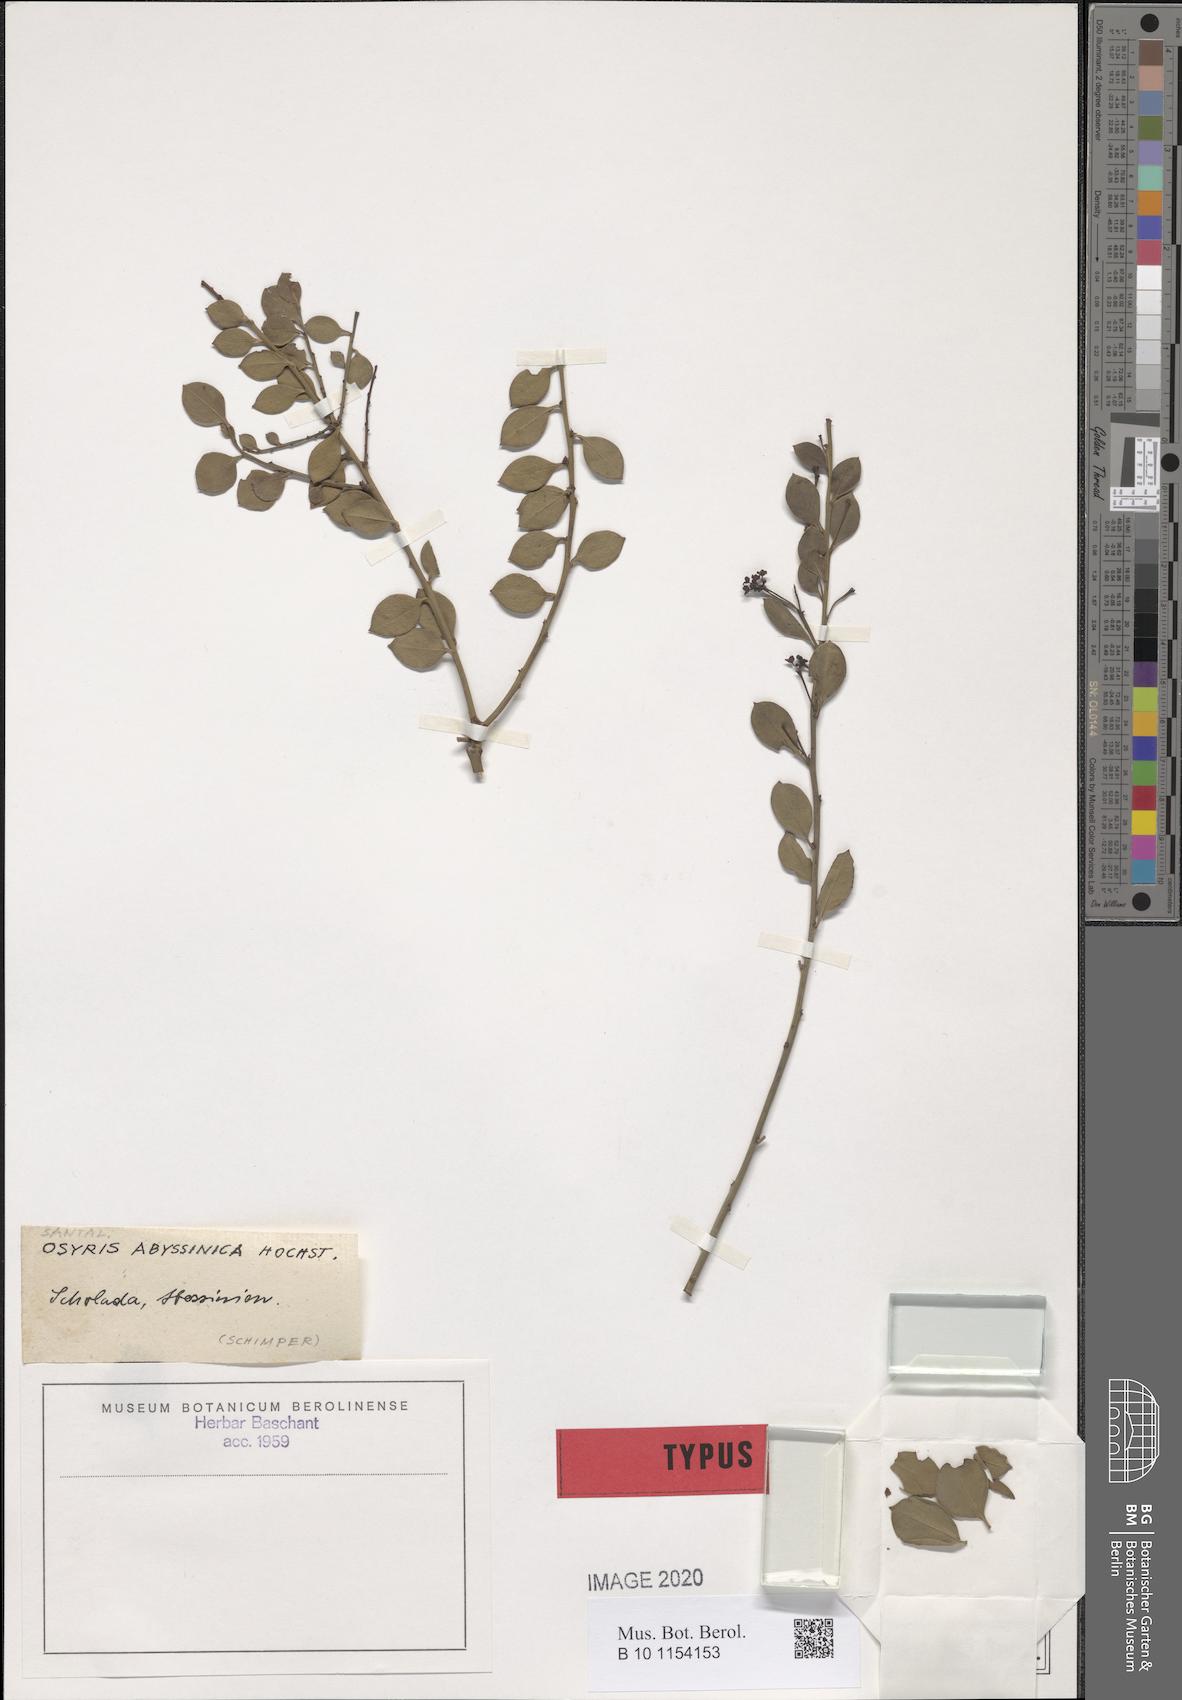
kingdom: Plantae
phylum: Tracheophyta
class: Magnoliopsida
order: Santalales
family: Santalaceae
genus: Osyris
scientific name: Osyris lanceolata
